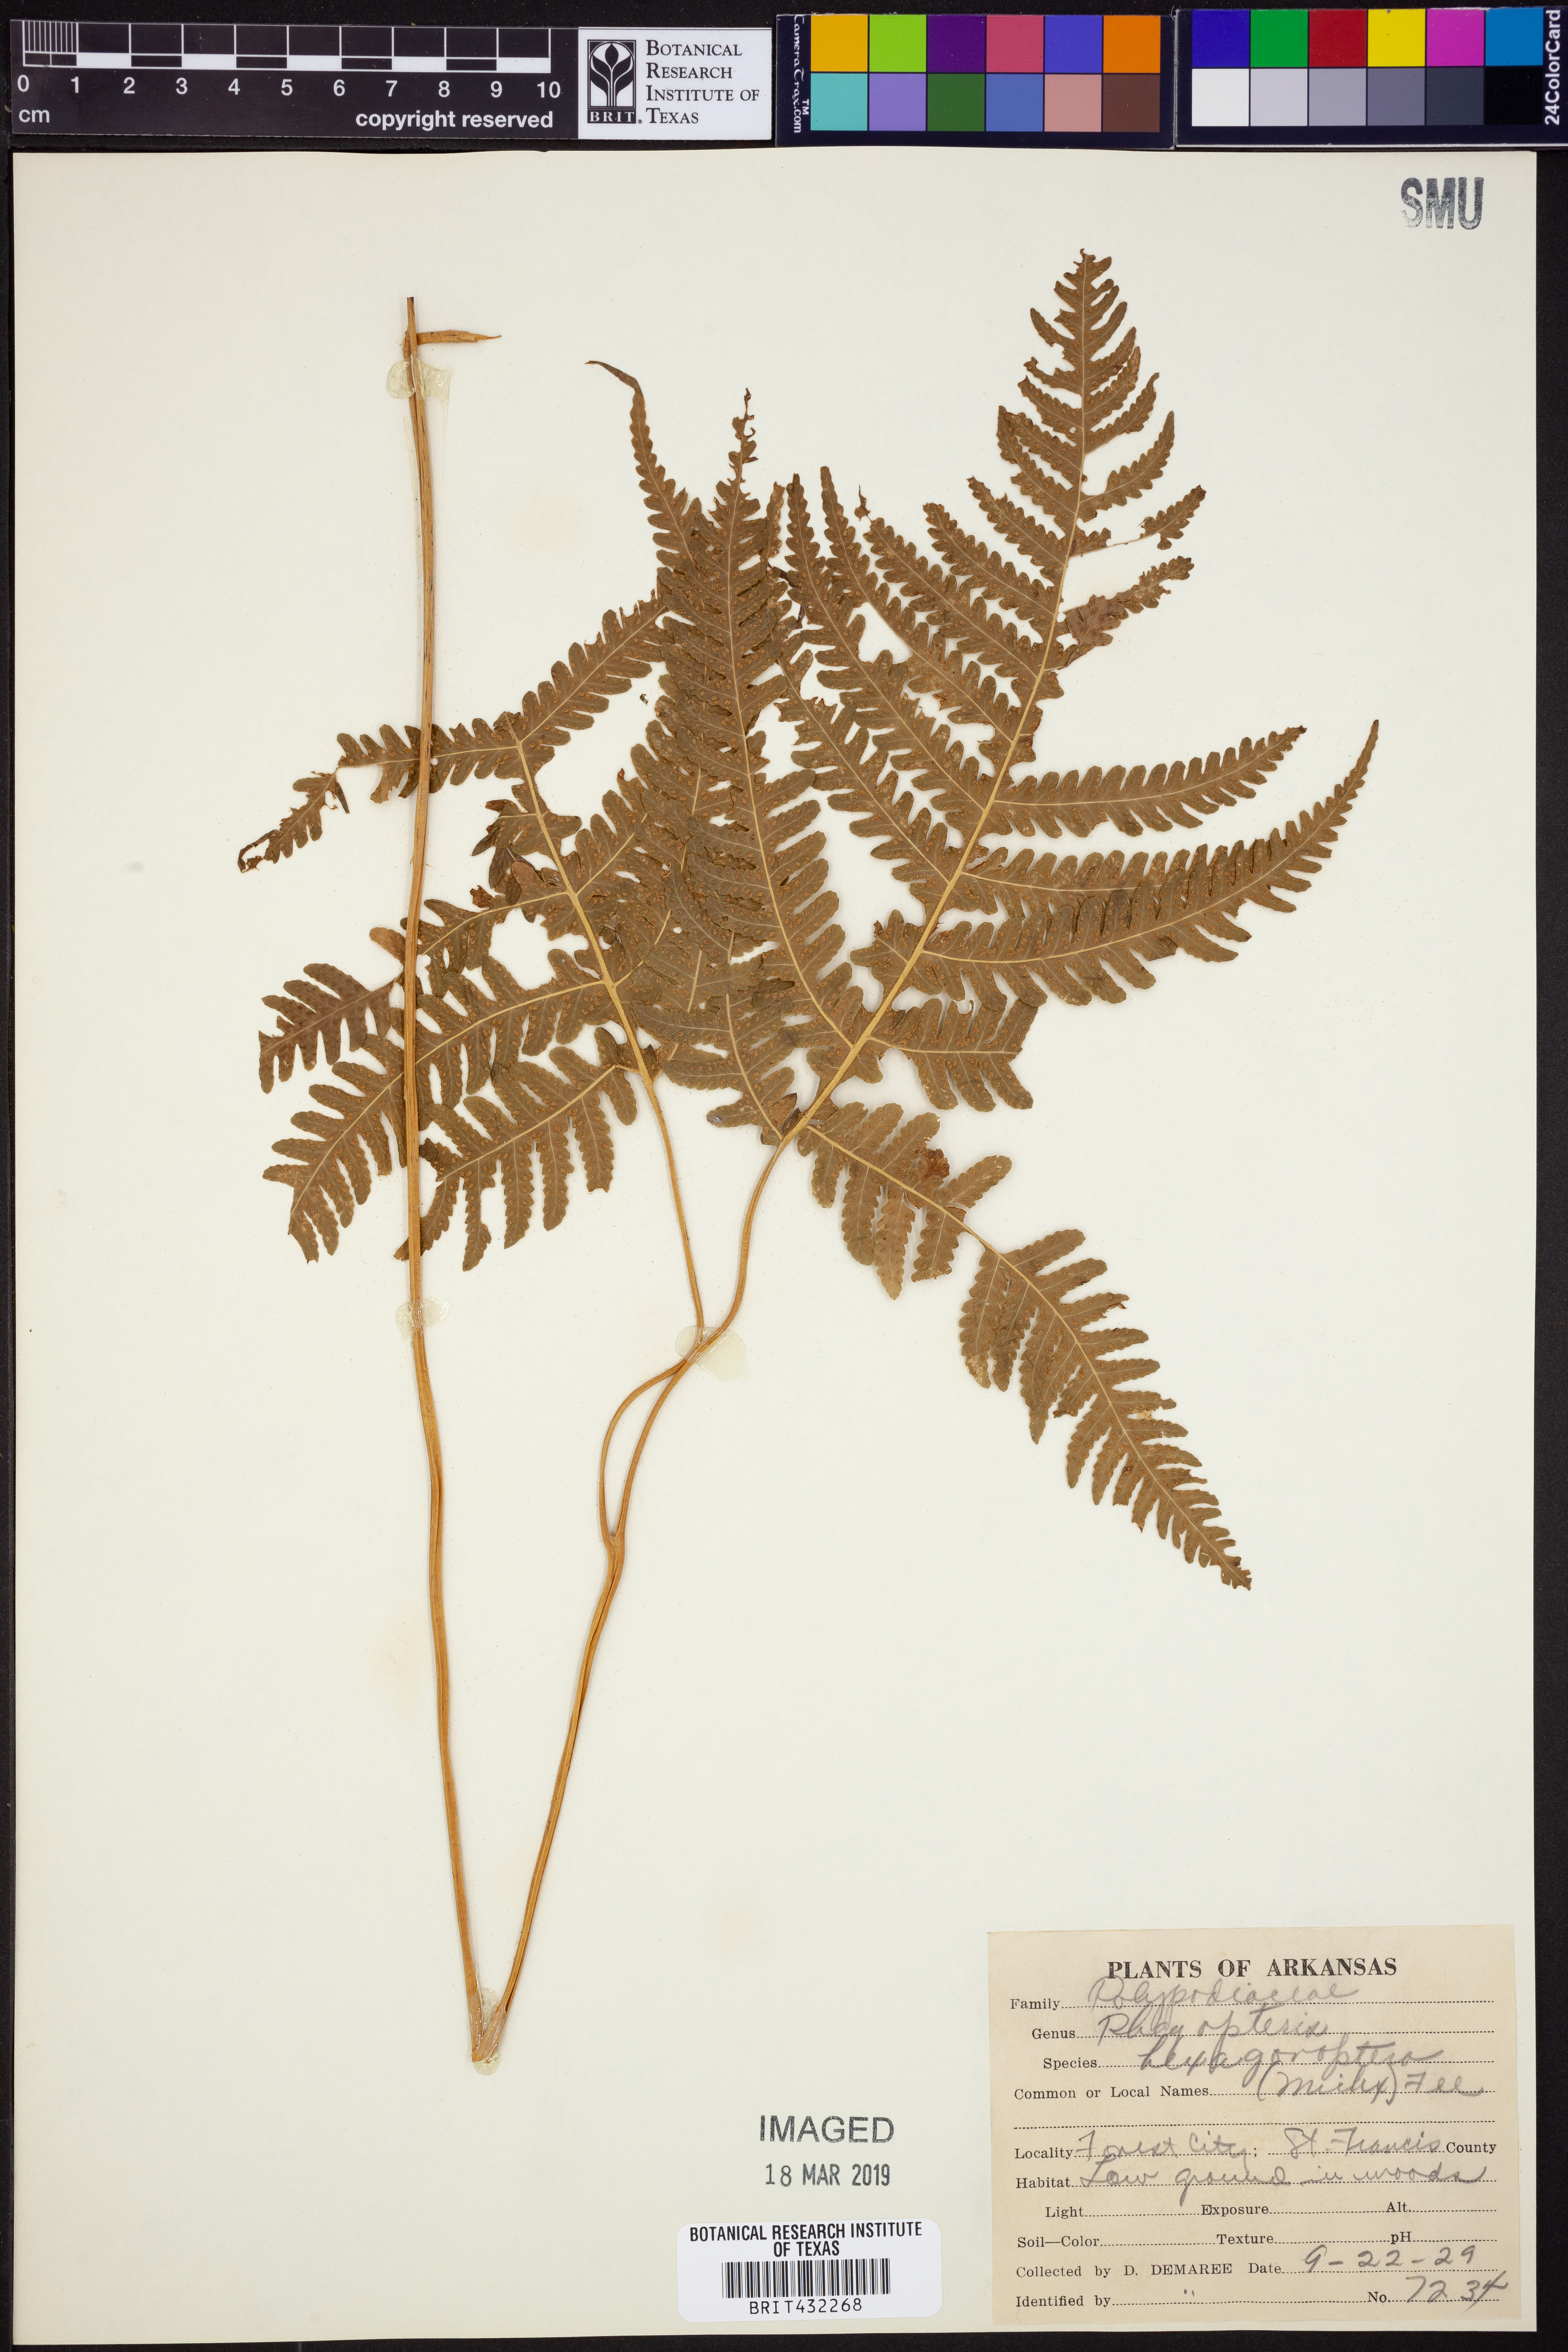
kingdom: Plantae
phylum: Tracheophyta
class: Polypodiopsida
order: Polypodiales
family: Thelypteridaceae
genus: Phegopteris
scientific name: Phegopteris hexagonoptera
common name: Broad beech fern
